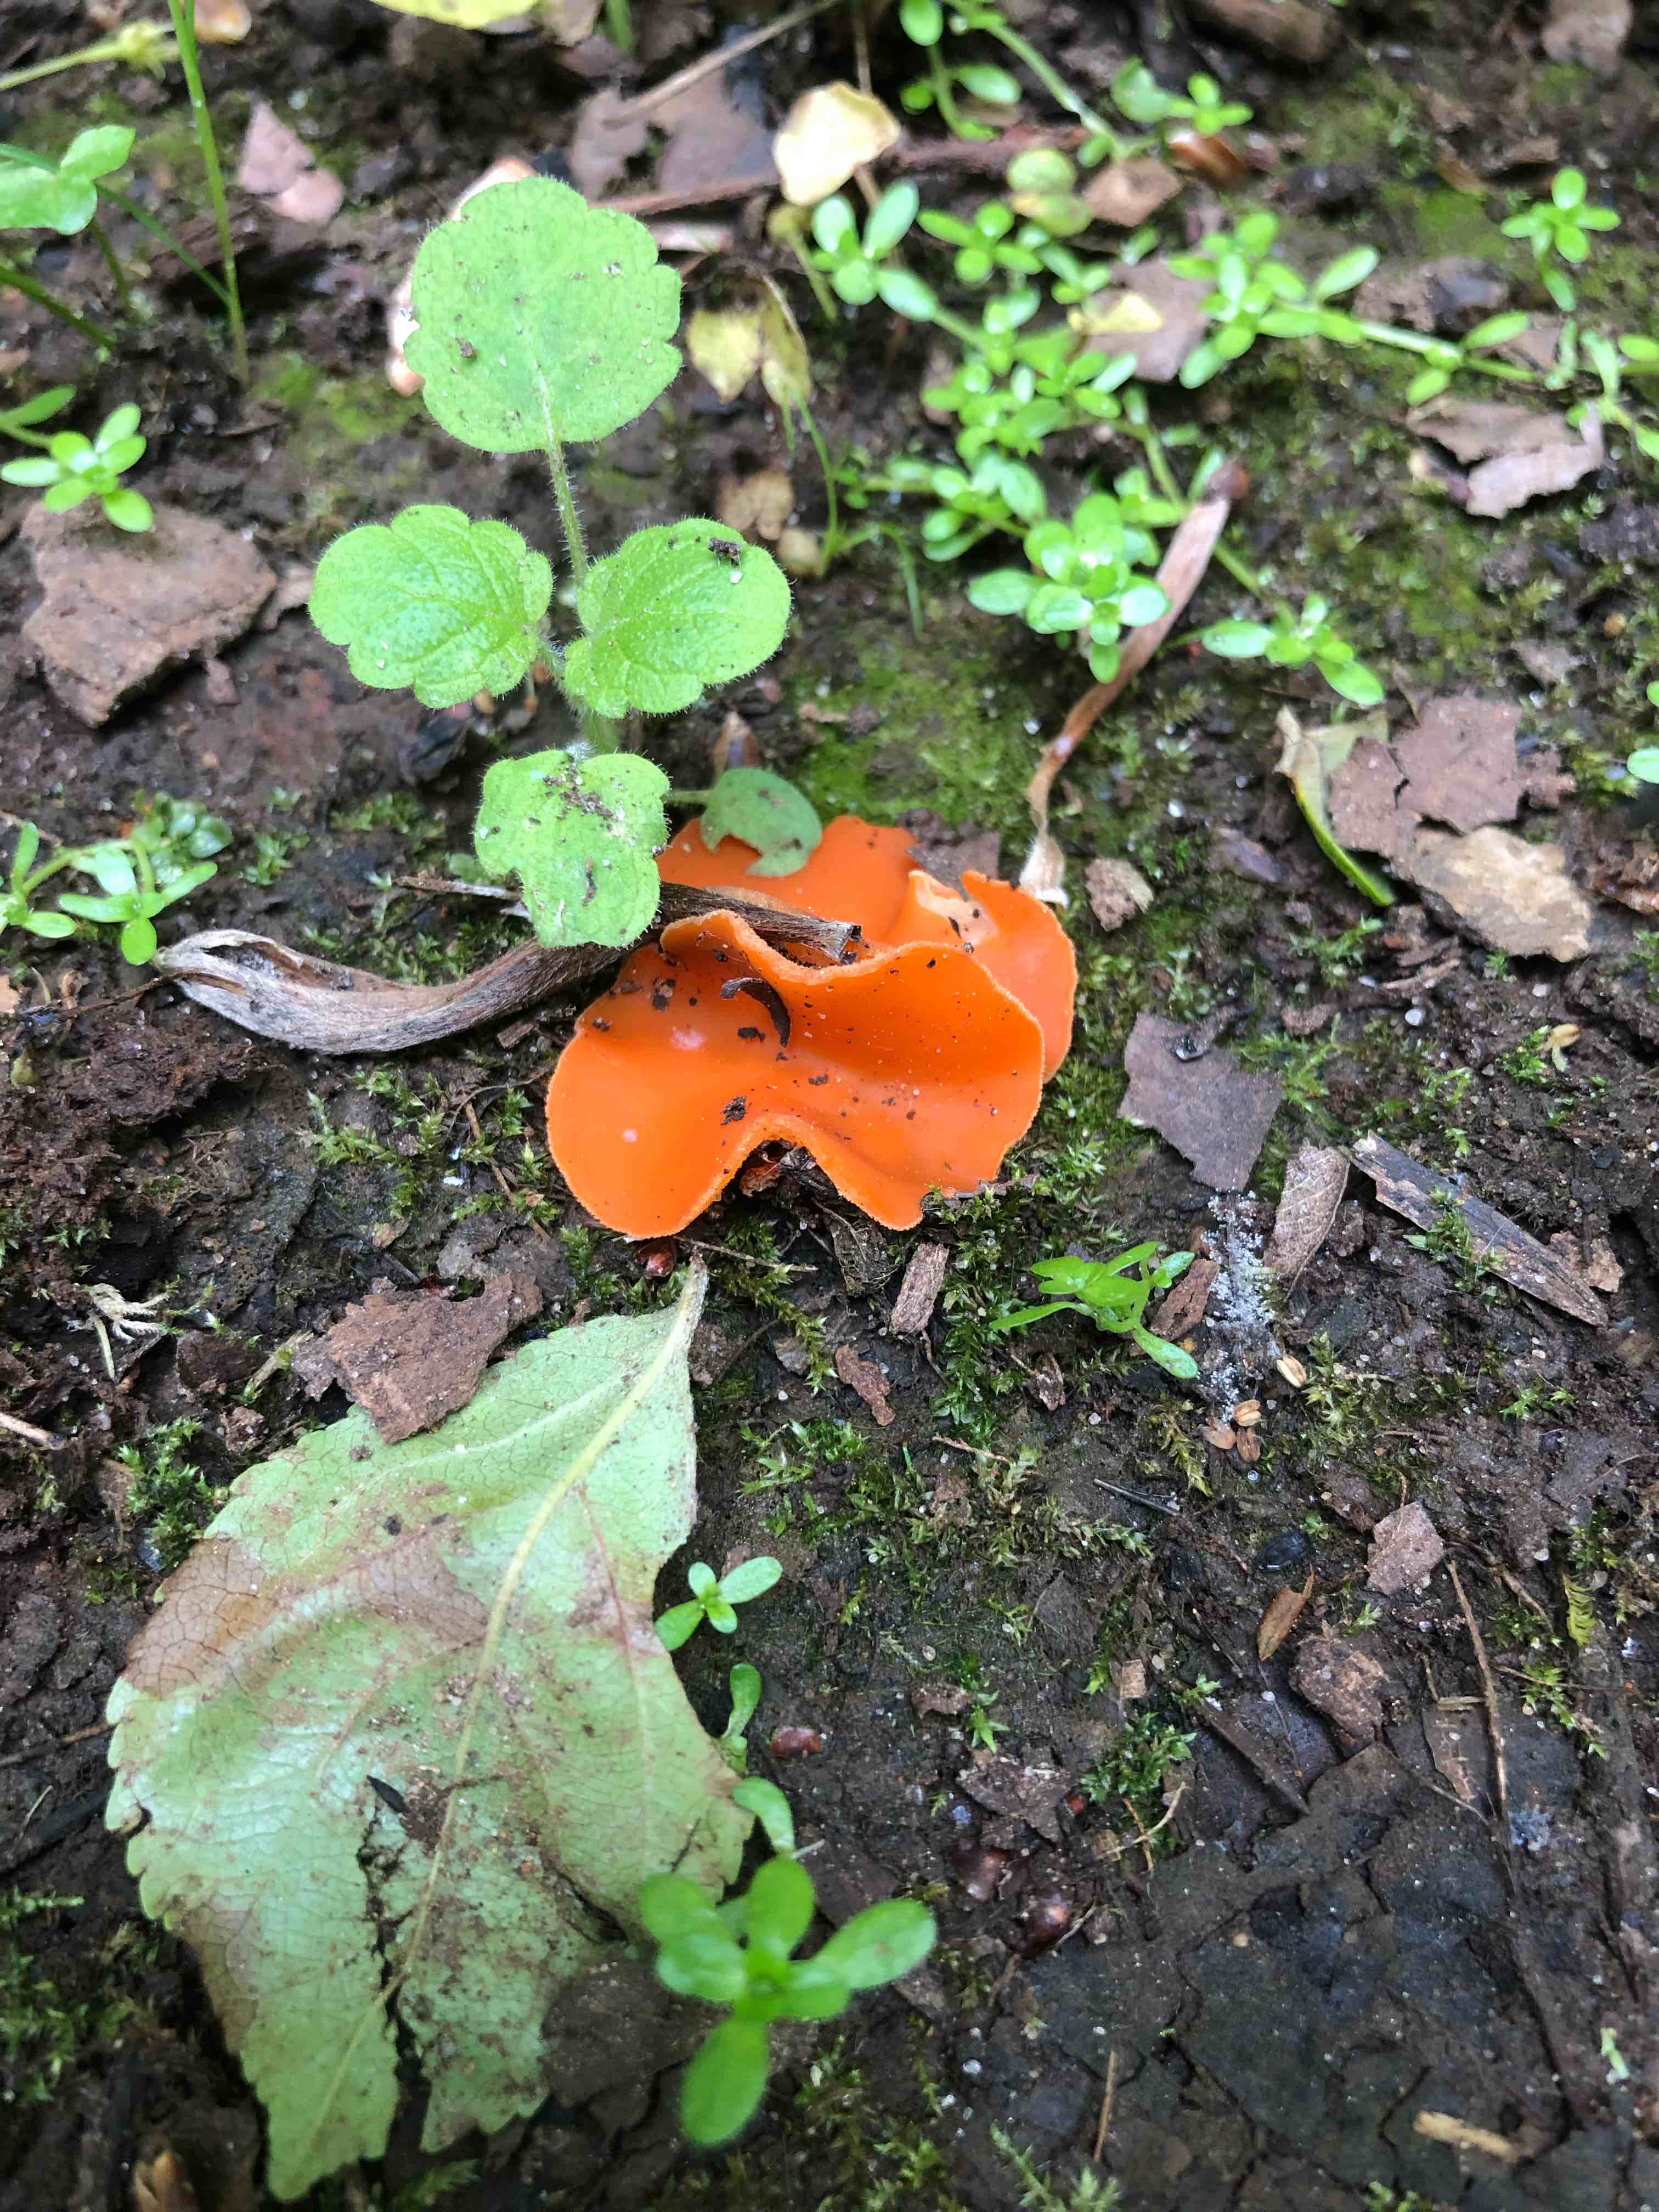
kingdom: Fungi
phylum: Ascomycota
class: Pezizomycetes
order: Pezizales
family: Pyronemataceae
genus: Aleuria
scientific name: Aleuria aurantia
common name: almindelig orangebæger
